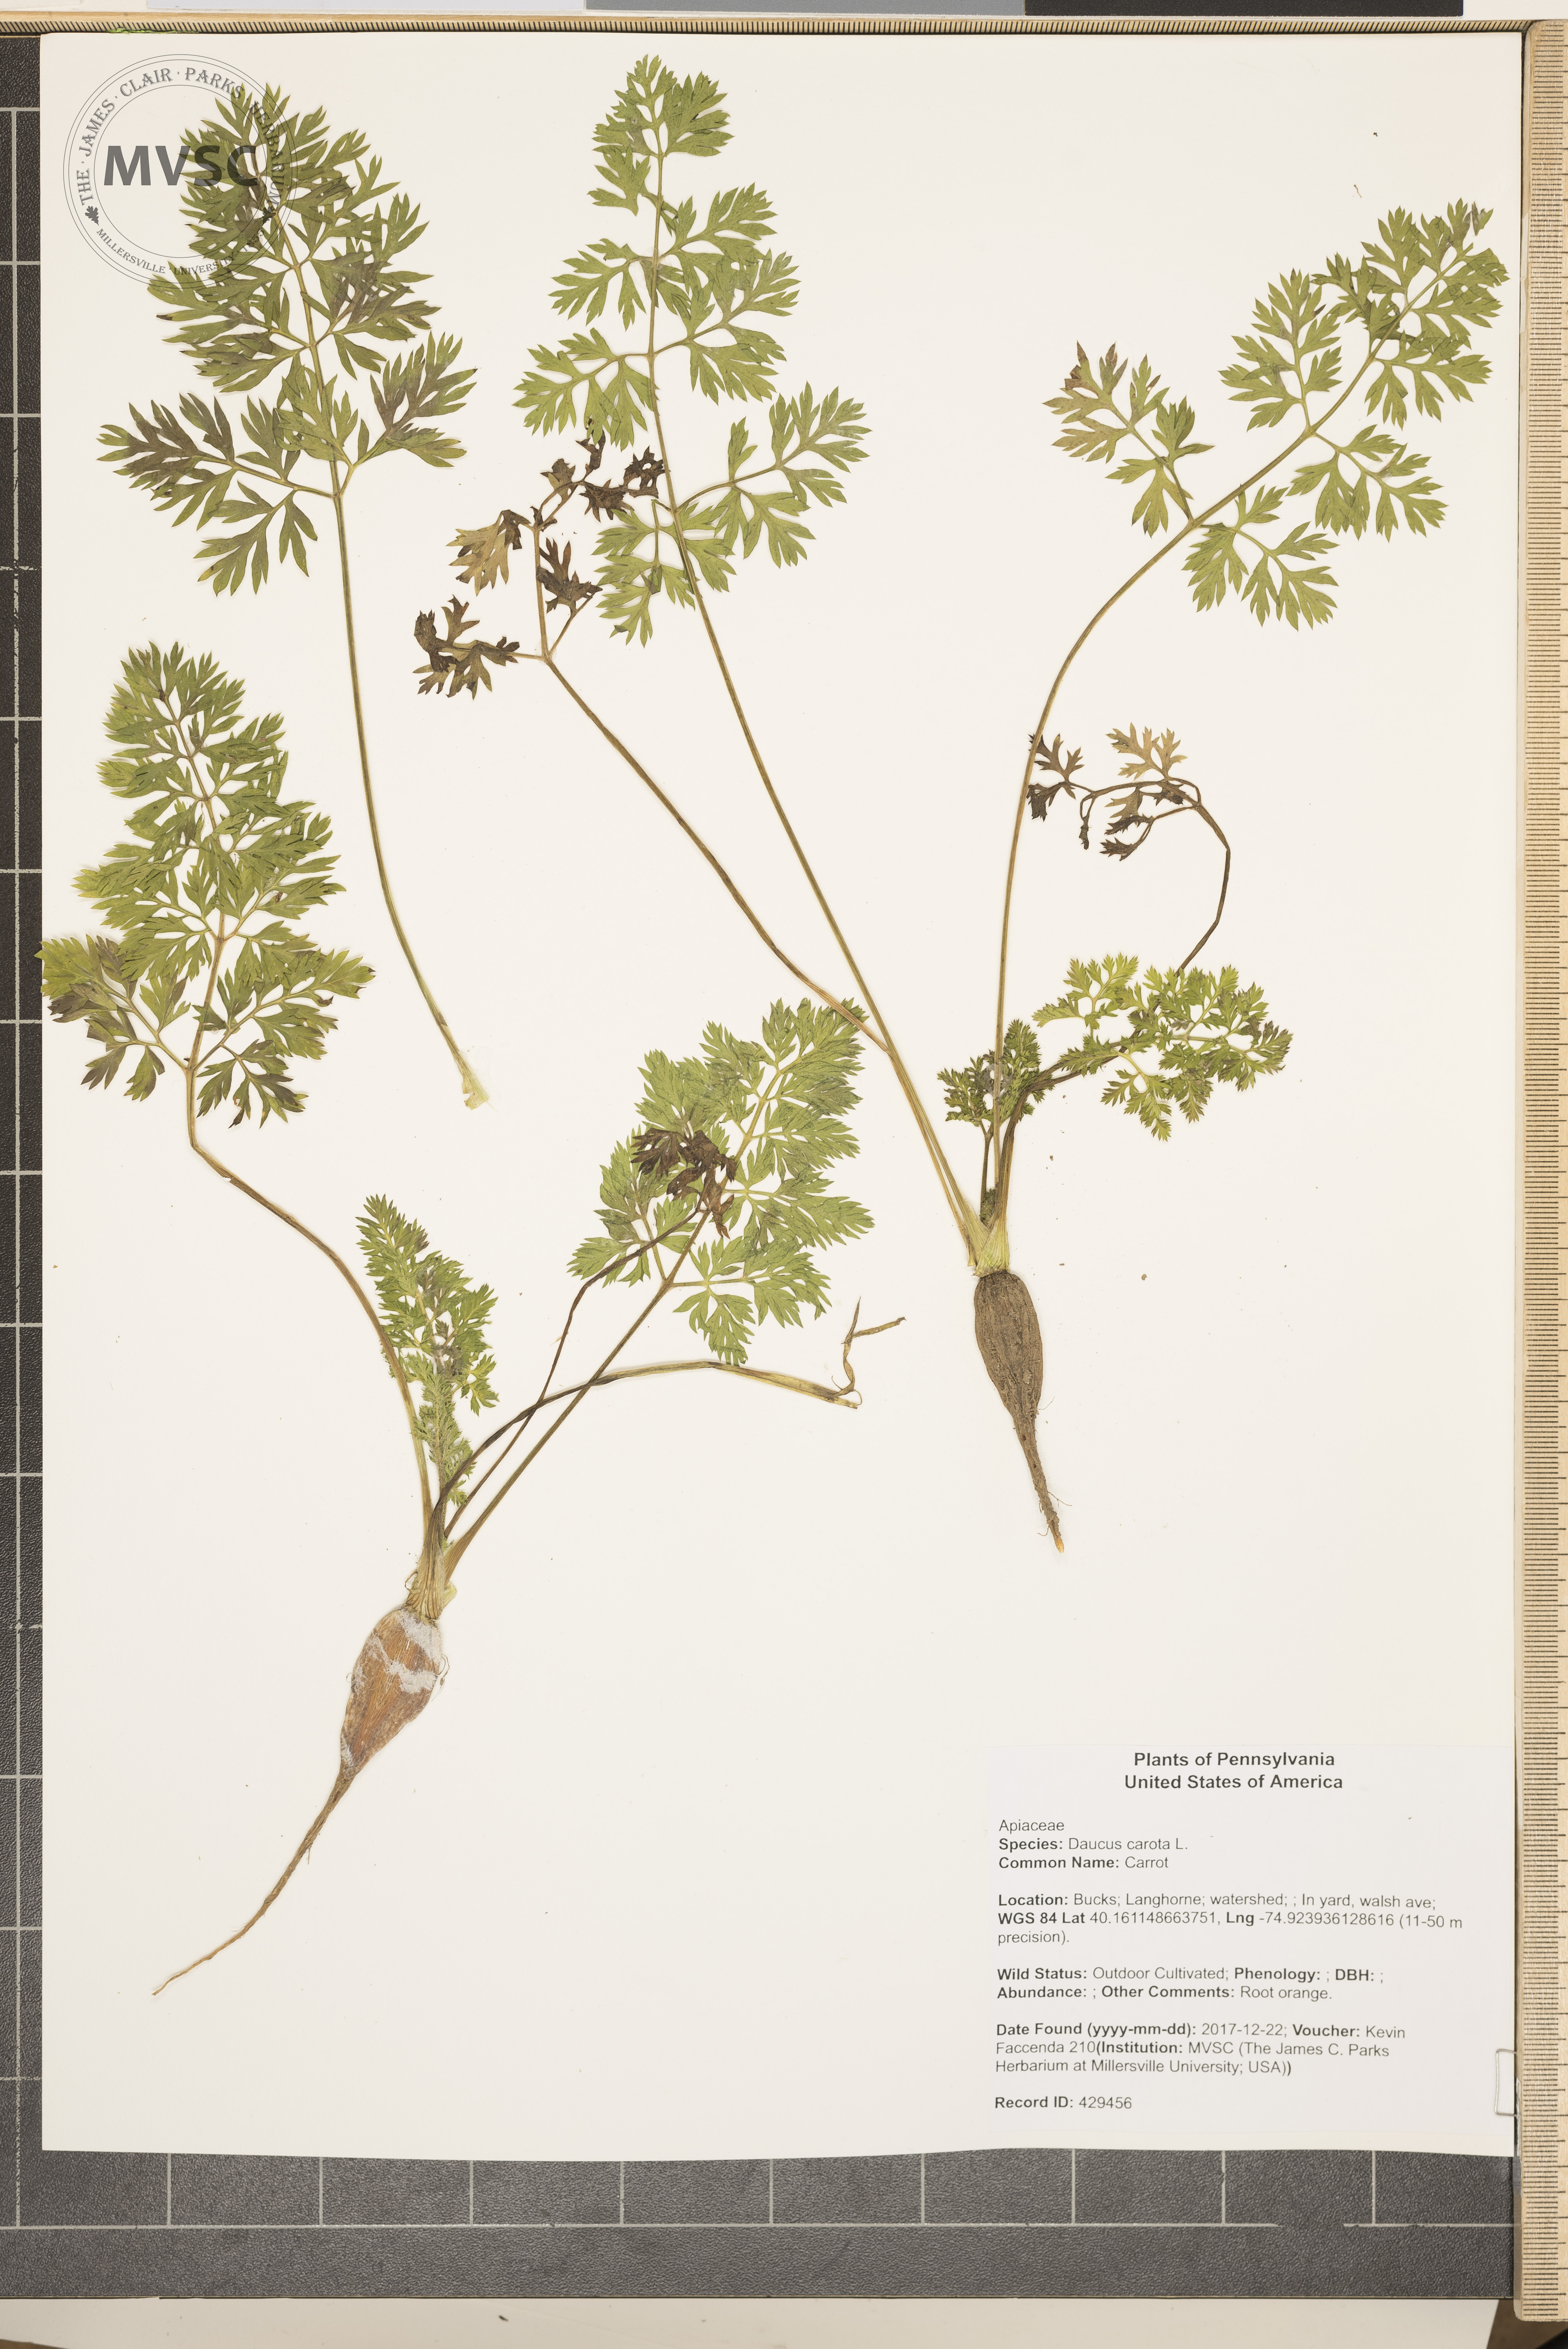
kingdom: Plantae
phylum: Tracheophyta
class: Magnoliopsida
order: Apiales
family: Apiaceae
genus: Daucus
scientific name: Daucus carota
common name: Carrot
